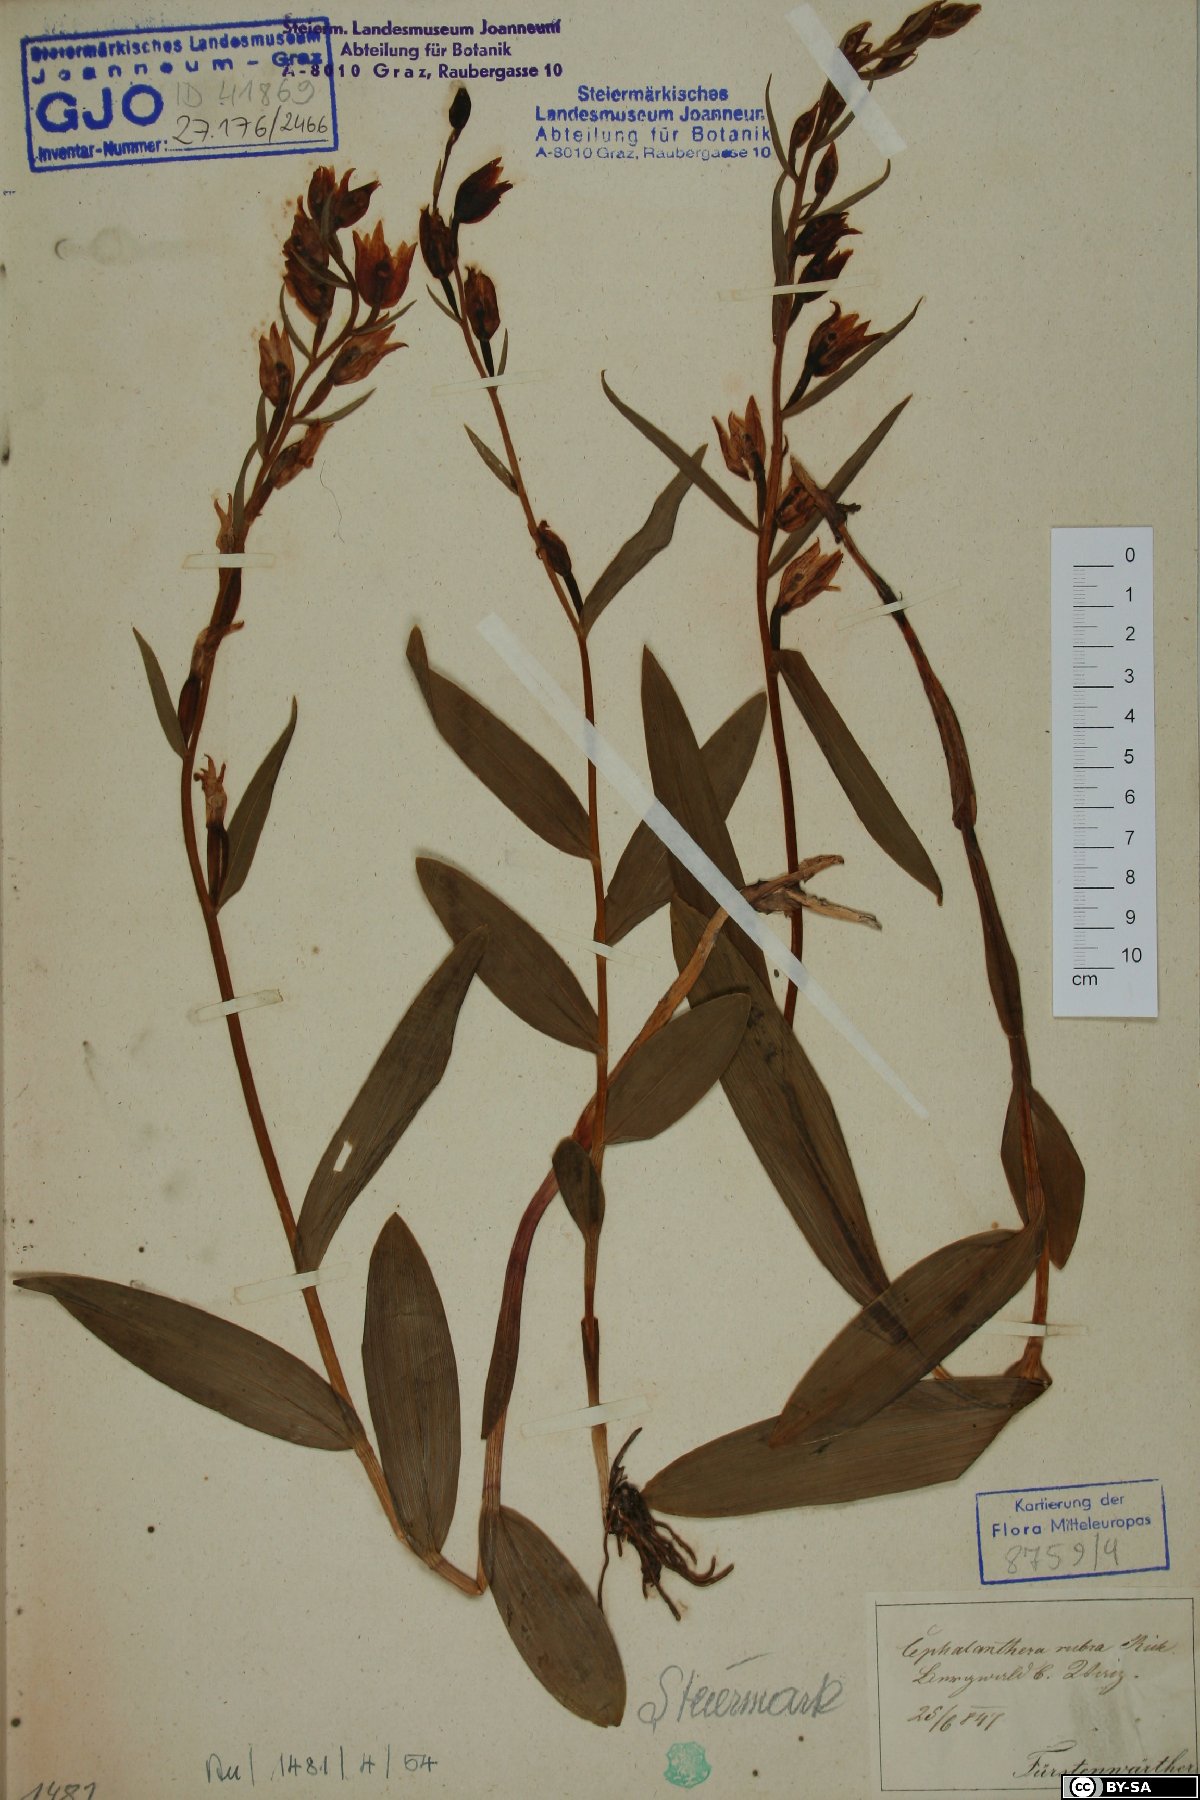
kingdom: Plantae
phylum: Tracheophyta
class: Liliopsida
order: Asparagales
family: Orchidaceae
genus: Cephalanthera
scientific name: Cephalanthera rubra
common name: Red helleborine
